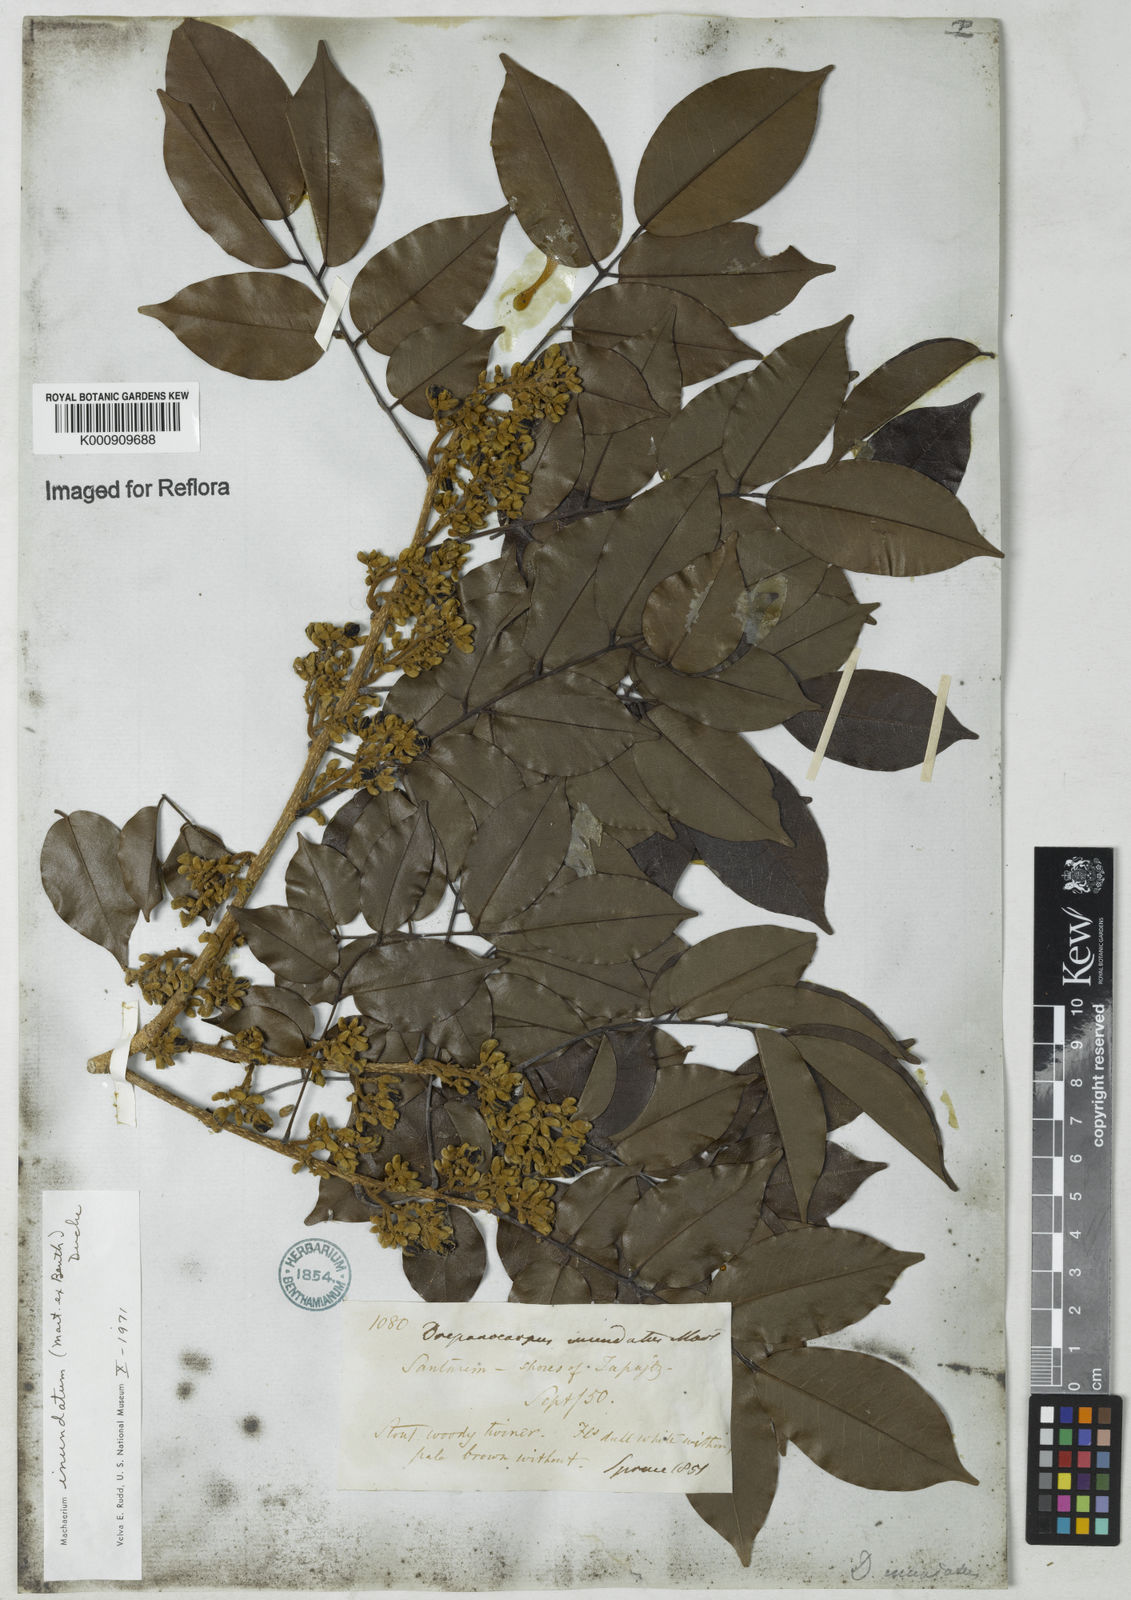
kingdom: Plantae
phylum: Tracheophyta
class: Magnoliopsida
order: Fabales
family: Fabaceae
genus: Machaerium
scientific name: Machaerium inundatum
